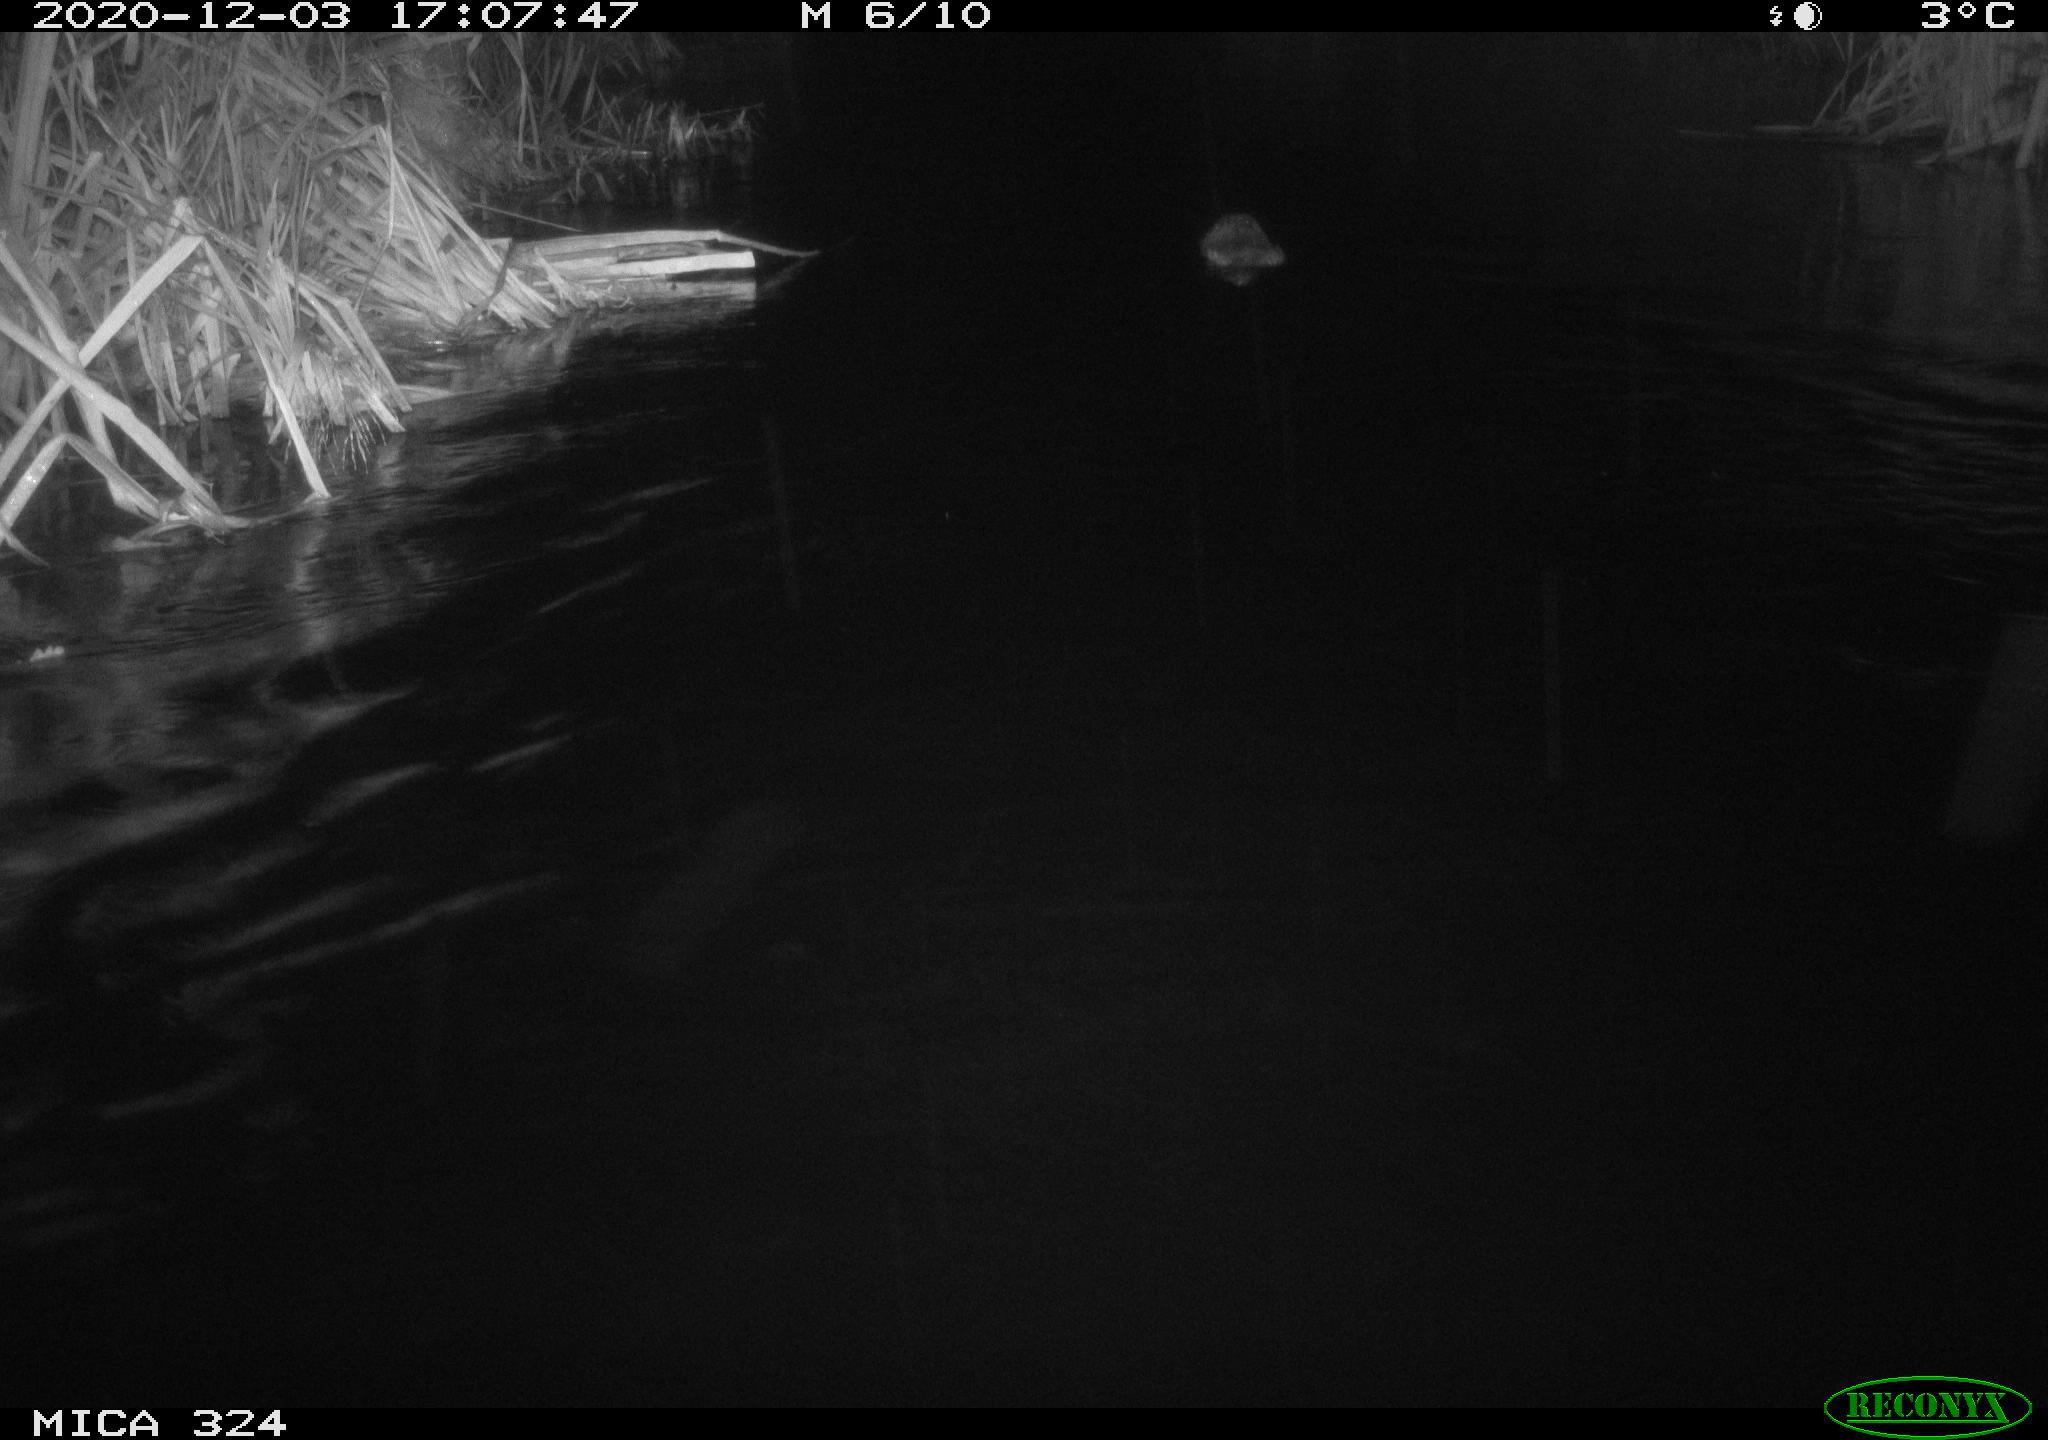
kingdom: Animalia
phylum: Chordata
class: Mammalia
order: Rodentia
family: Castoridae
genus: Castor
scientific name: Castor fiber
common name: Eurasian beaver
